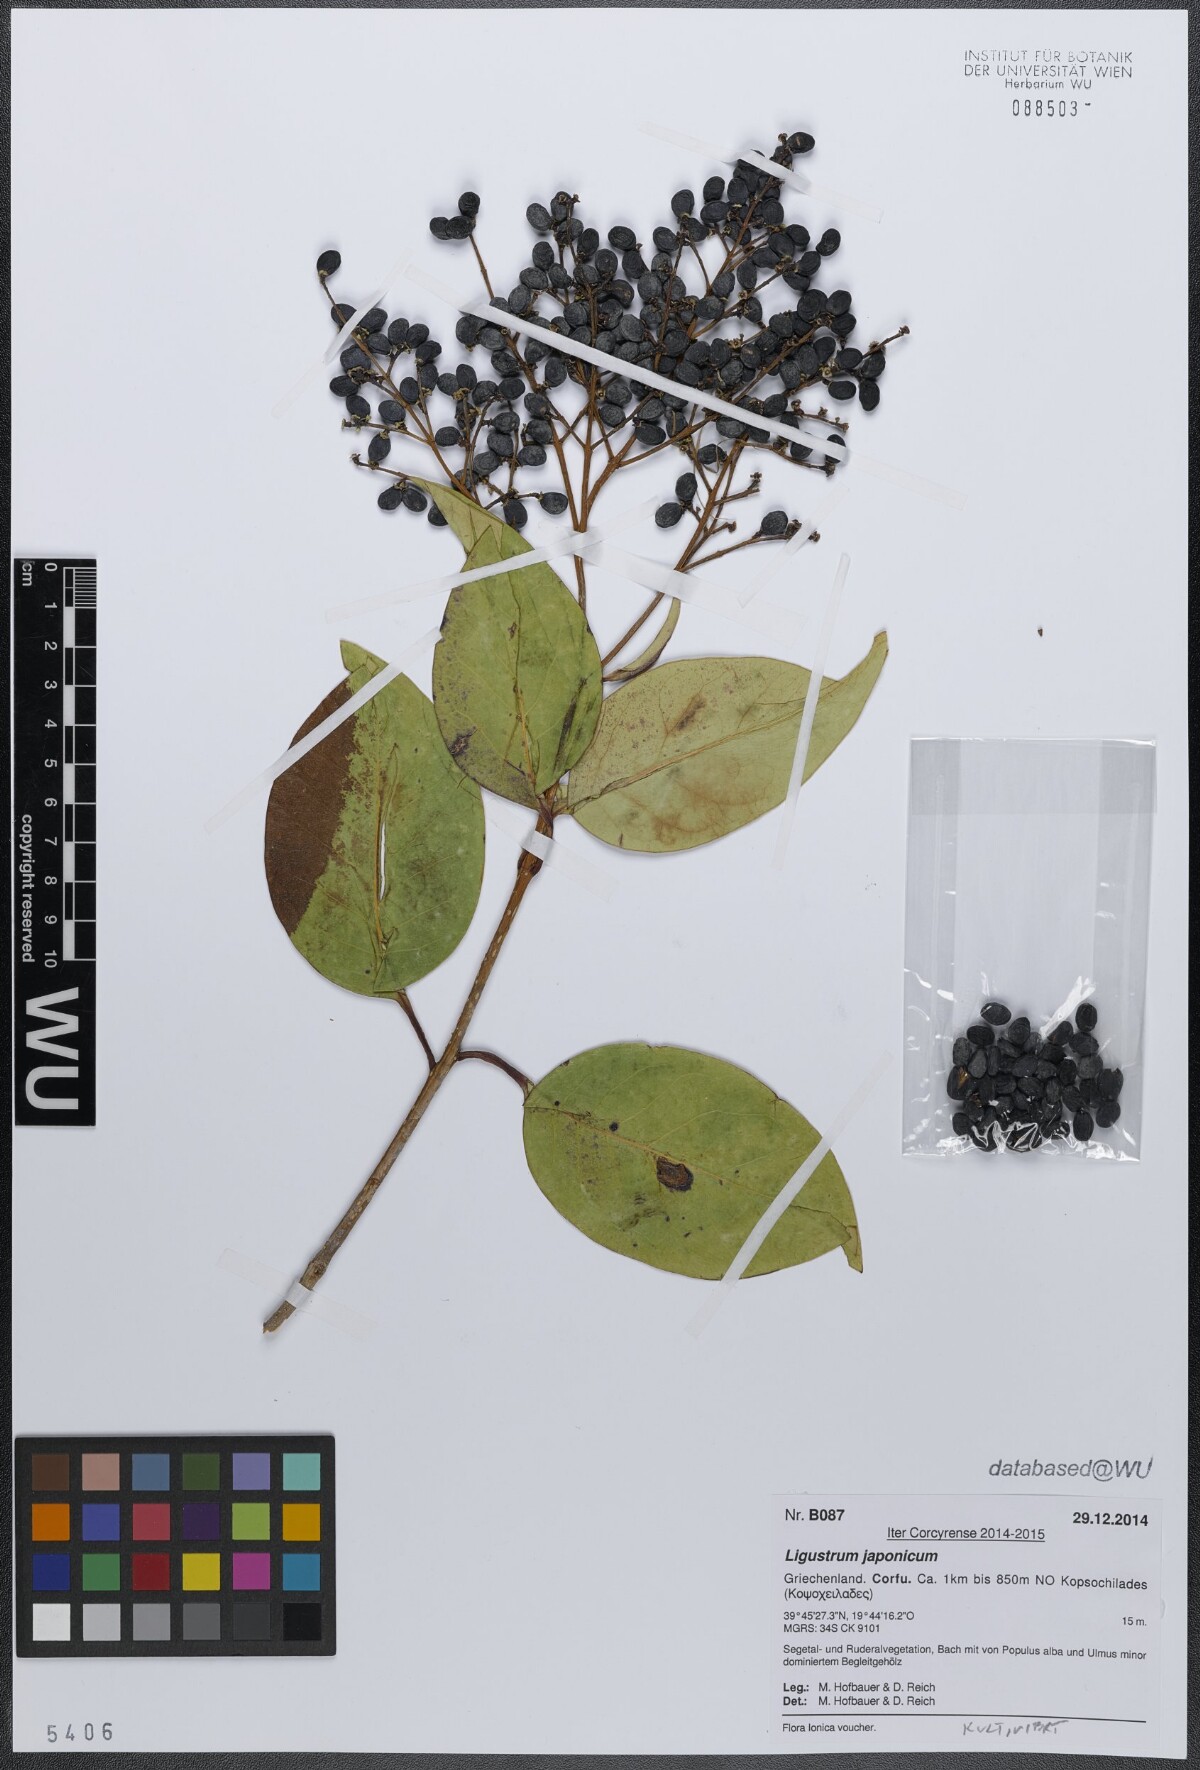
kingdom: Plantae
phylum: Tracheophyta
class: Magnoliopsida
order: Lamiales
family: Oleaceae
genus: Ligustrum
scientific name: Ligustrum lucidum
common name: Glossy privet
